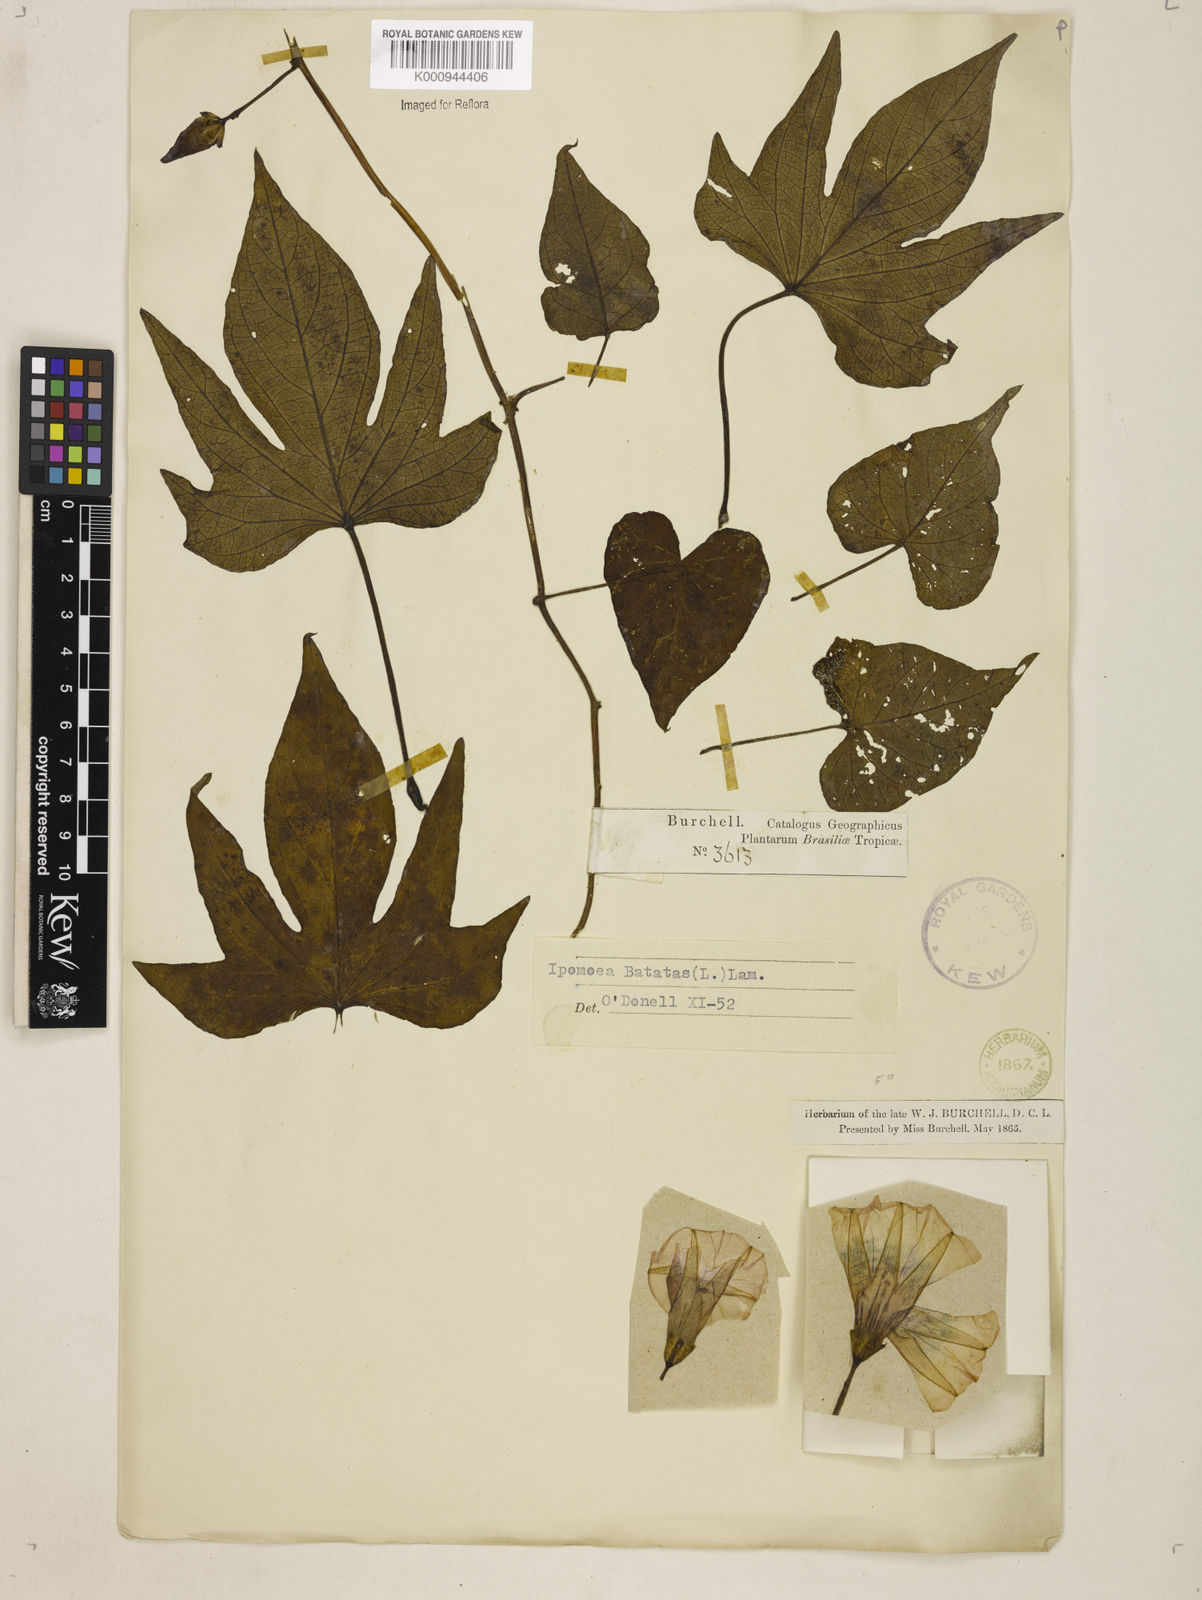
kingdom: Plantae
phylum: Tracheophyta
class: Magnoliopsida
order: Solanales
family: Convolvulaceae
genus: Ipomoea
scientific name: Ipomoea batatas
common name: Sweet-potato
